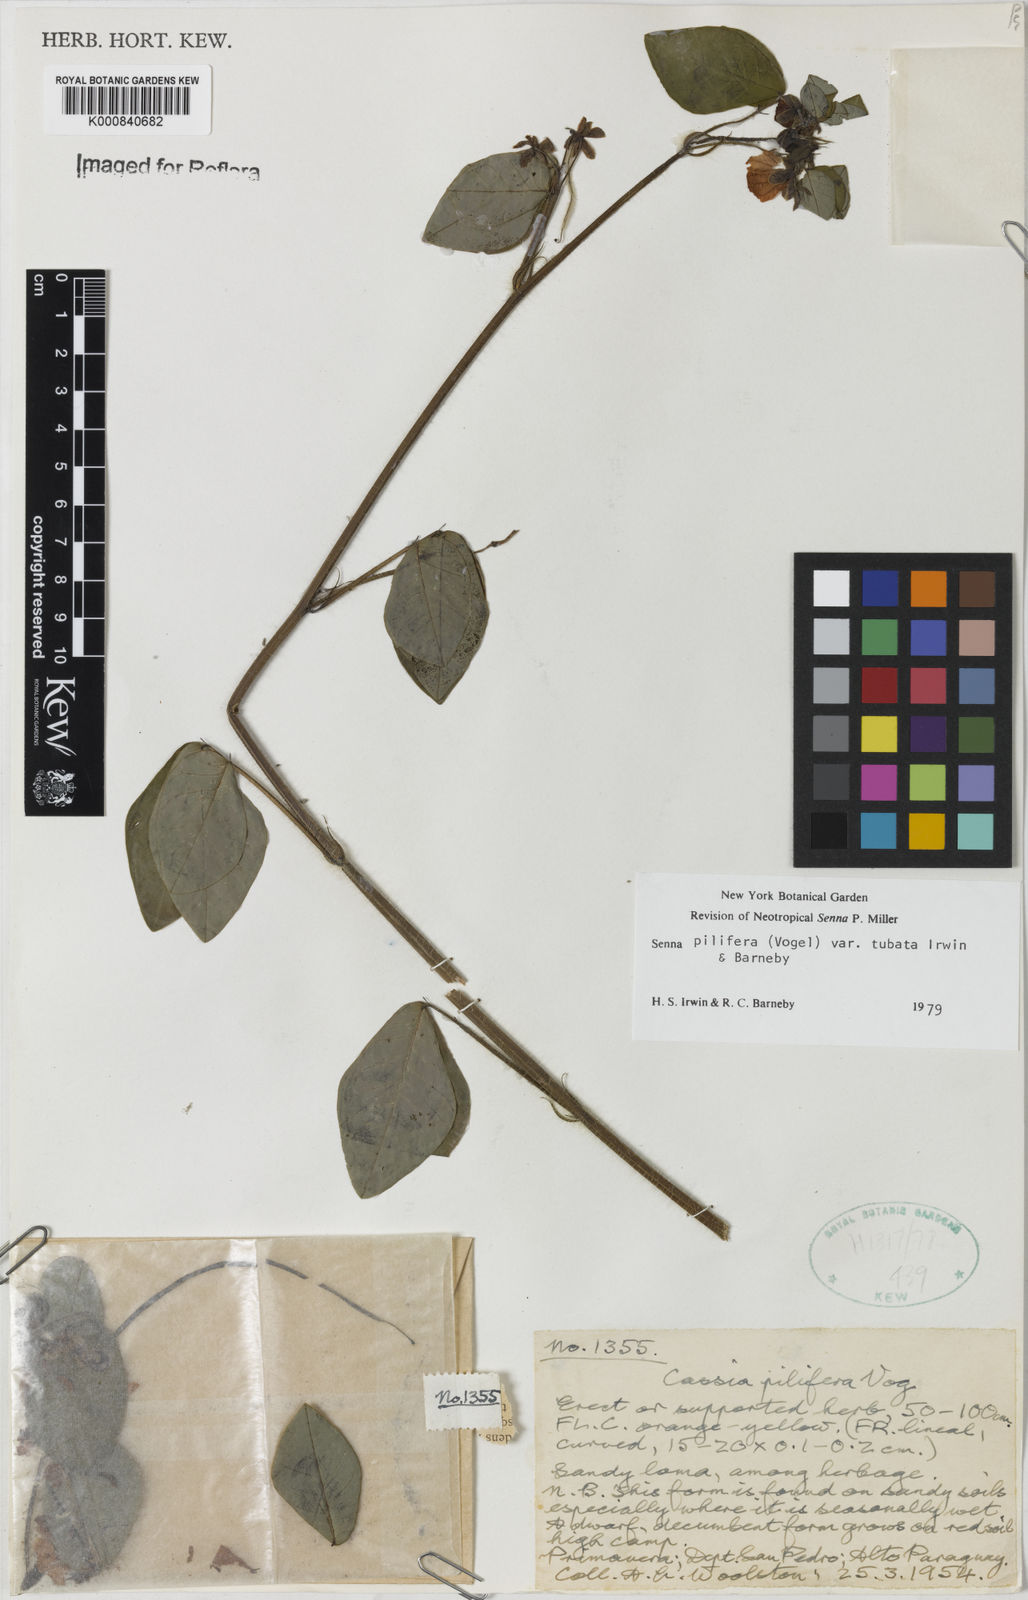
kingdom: Plantae
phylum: Tracheophyta
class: Magnoliopsida
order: Fabales
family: Fabaceae
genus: Senna
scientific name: Senna pilifera
